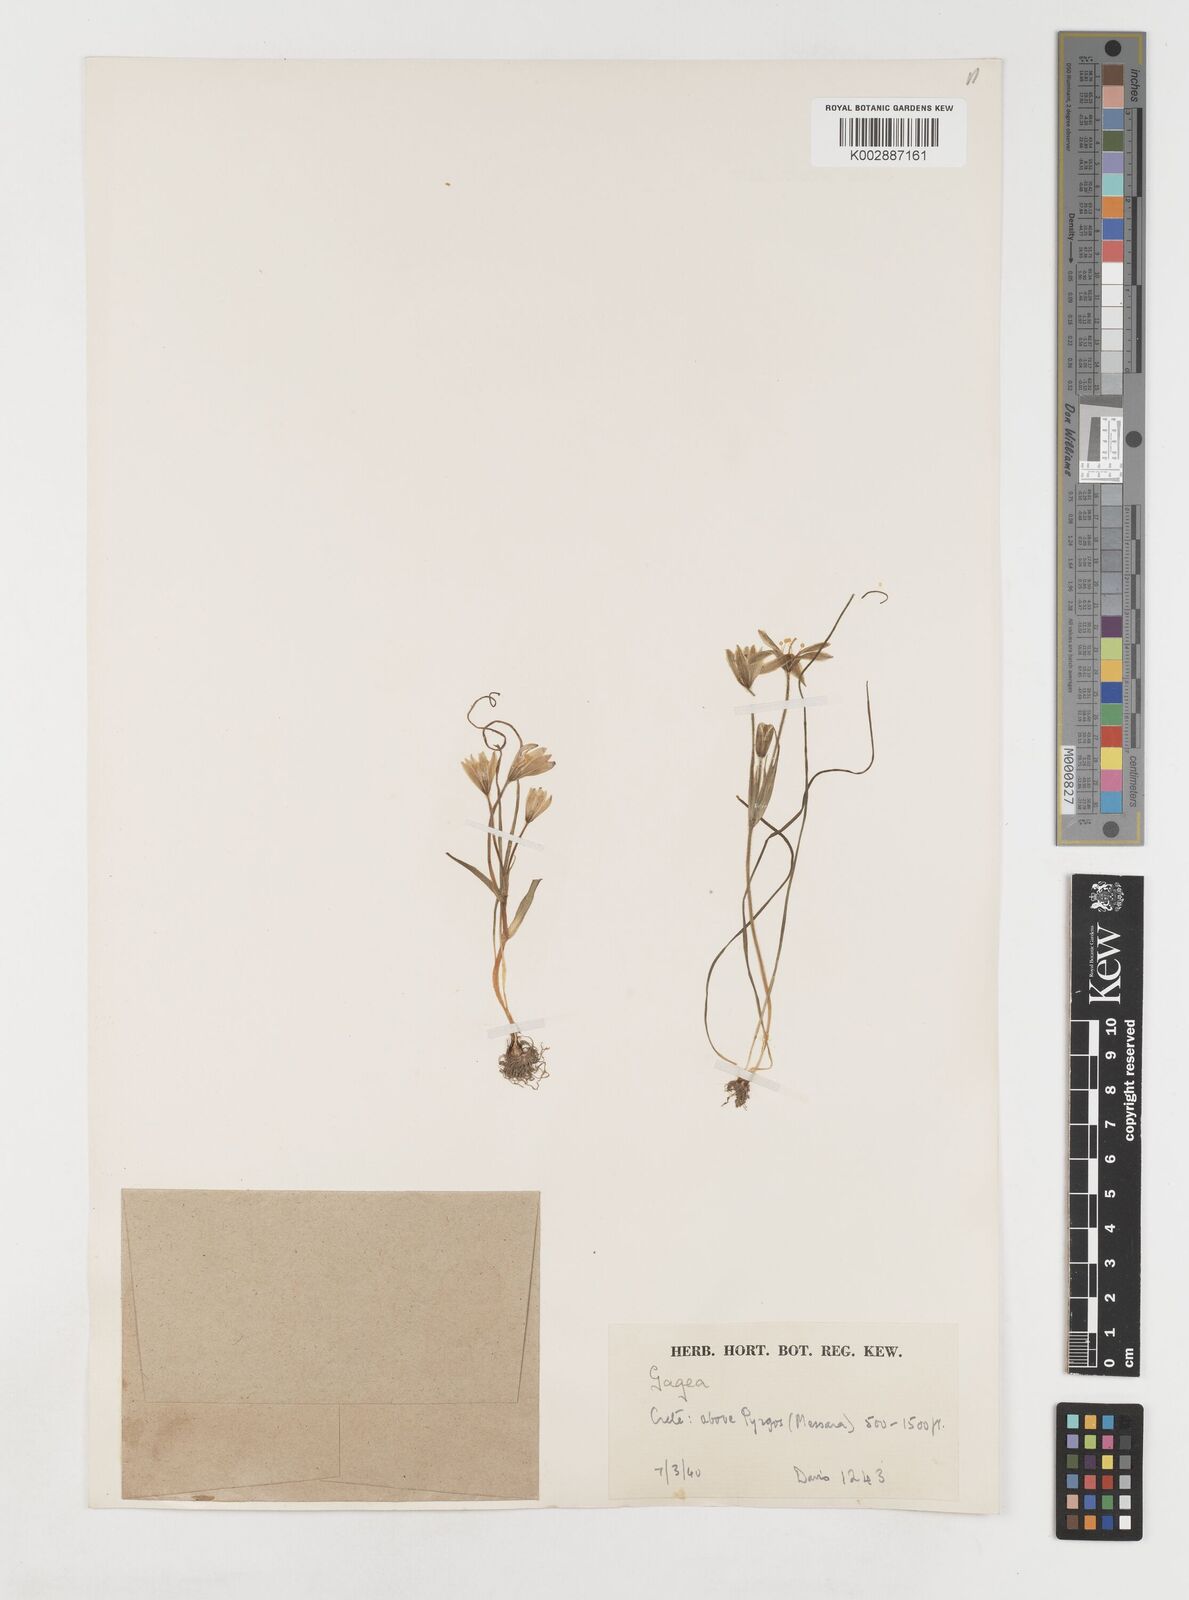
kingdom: Plantae
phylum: Tracheophyta
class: Liliopsida
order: Liliales
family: Liliaceae
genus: Gagea
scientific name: Gagea peduncularis
